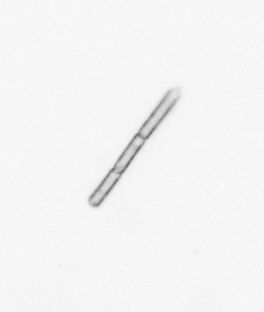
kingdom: Chromista
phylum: Ochrophyta
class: Bacillariophyceae
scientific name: Bacillariophyceae
